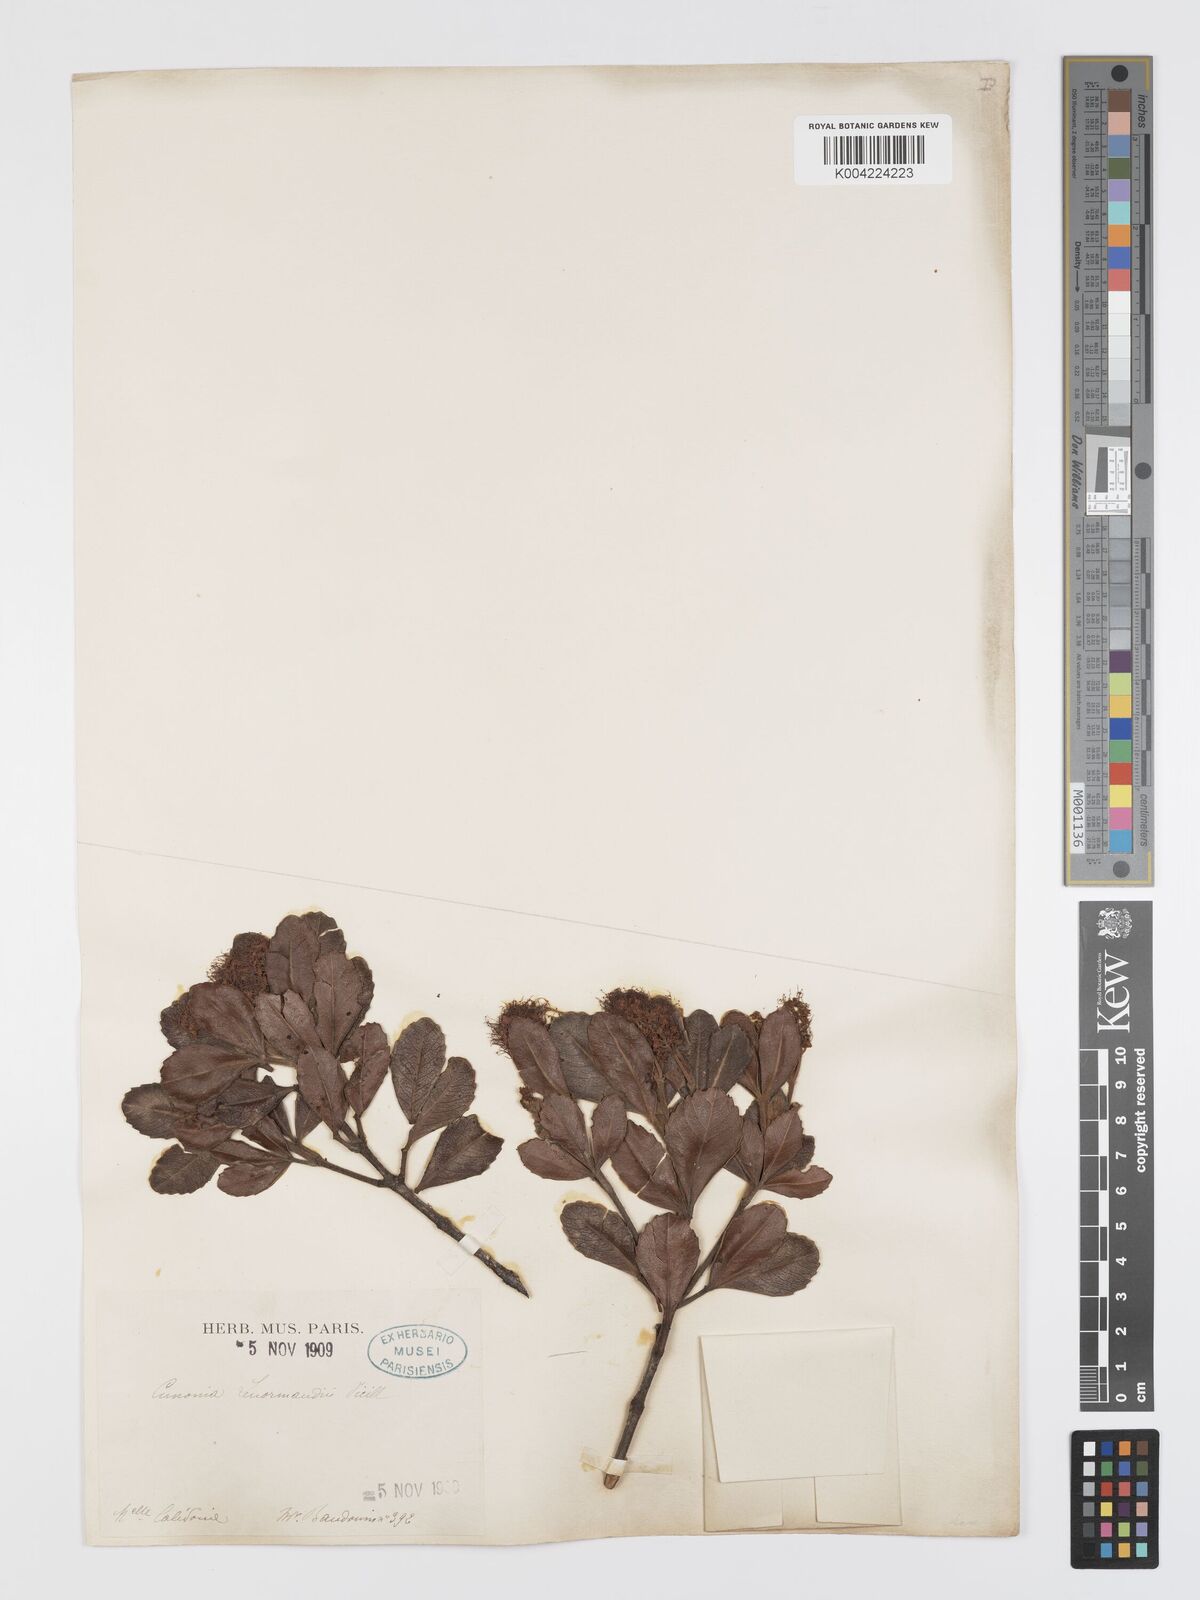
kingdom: Plantae
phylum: Tracheophyta
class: Magnoliopsida
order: Oxalidales
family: Cunoniaceae
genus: Cunonia
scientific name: Cunonia lenormandii
